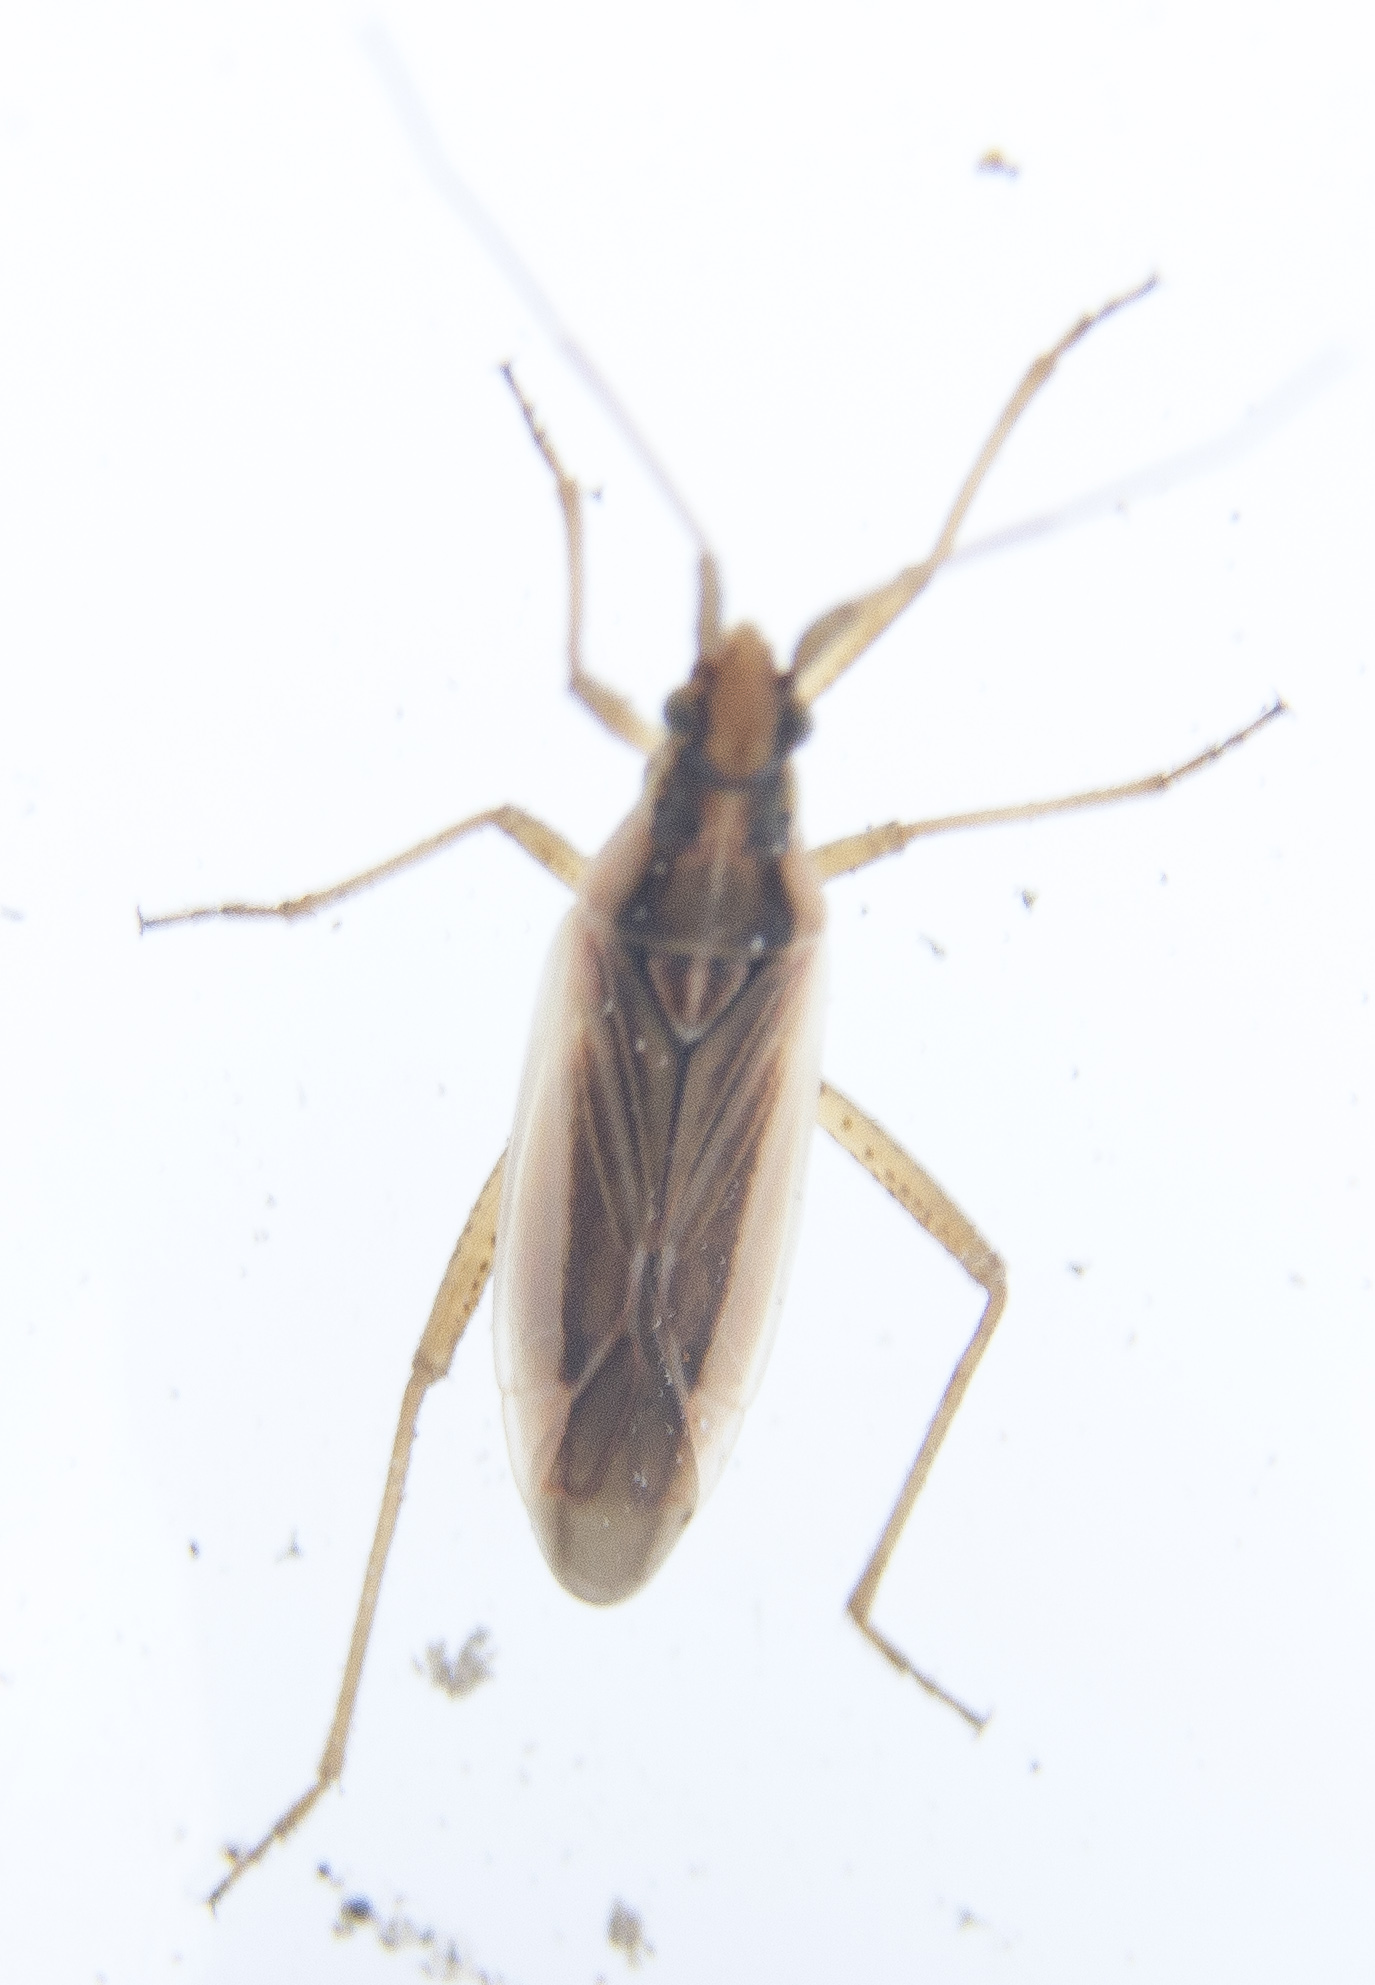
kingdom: Animalia
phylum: Arthropoda
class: Insecta
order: Hemiptera
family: Miridae
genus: Stenodema
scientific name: Stenodema holsata
